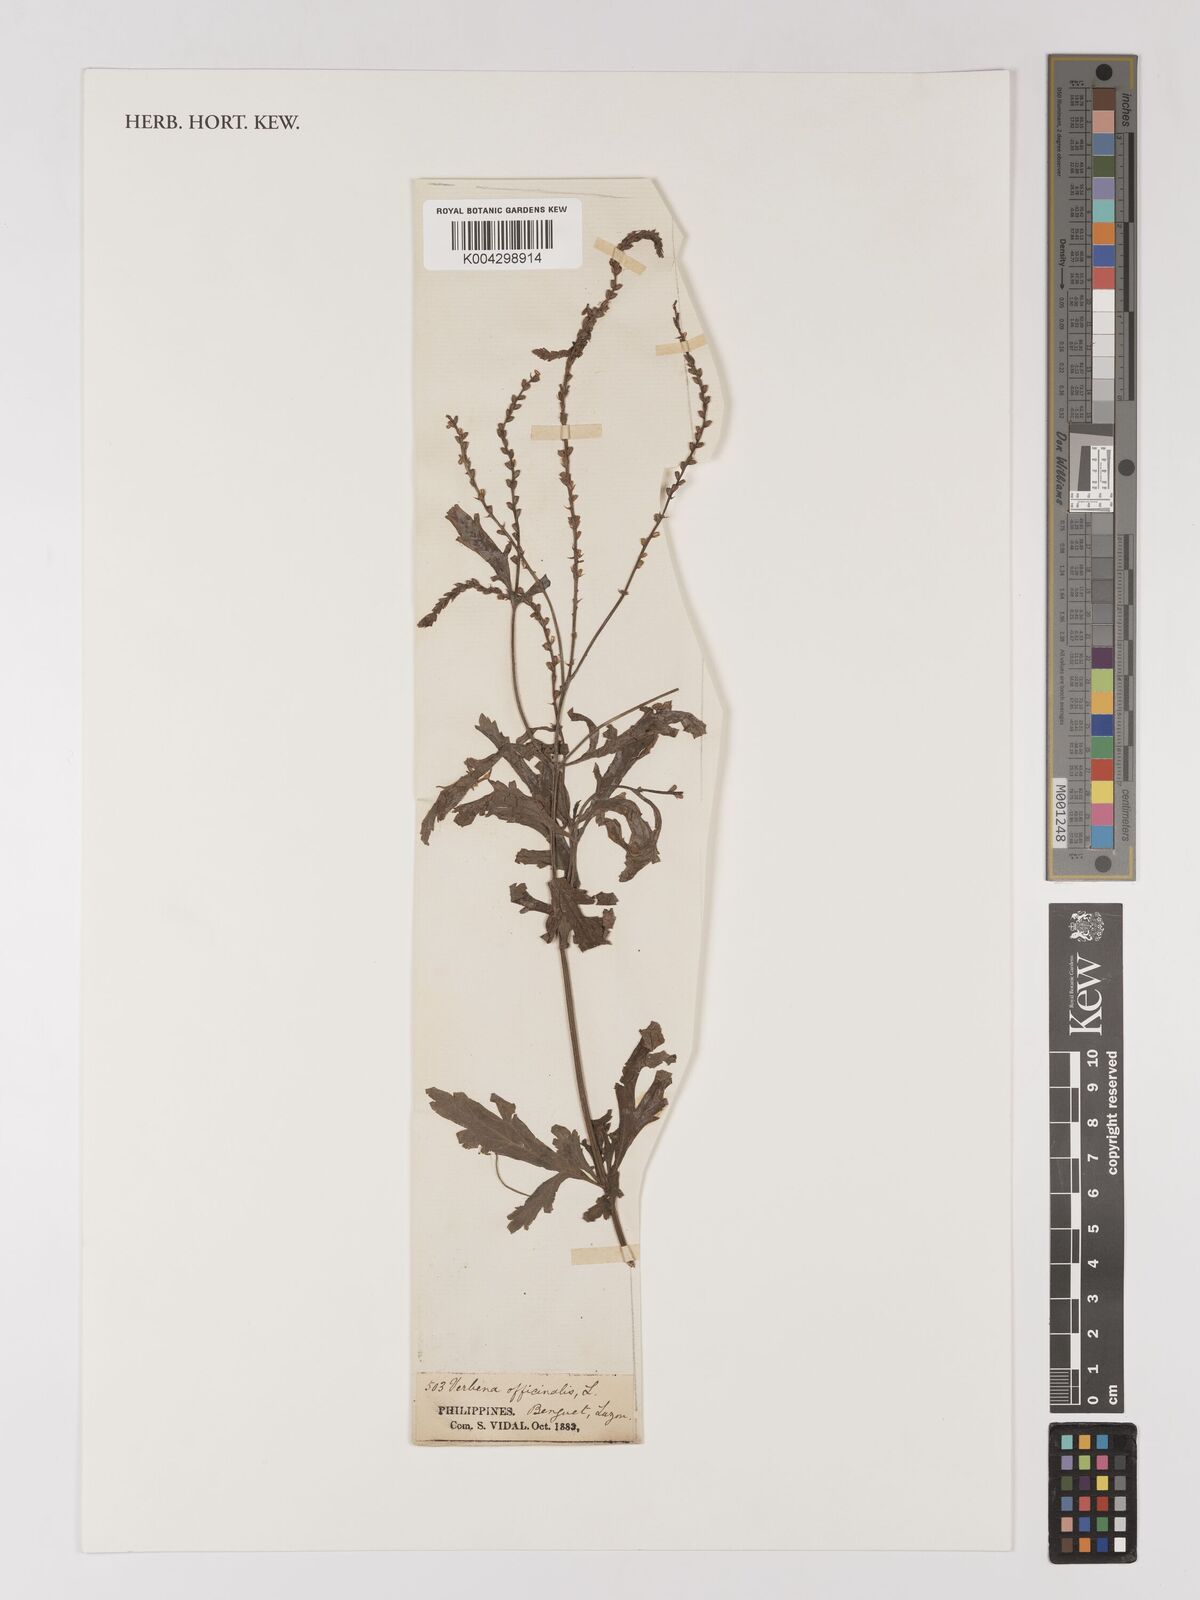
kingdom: Plantae
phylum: Tracheophyta
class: Magnoliopsida
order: Lamiales
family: Verbenaceae
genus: Verbena
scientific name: Verbena officinalis
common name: Vervain
